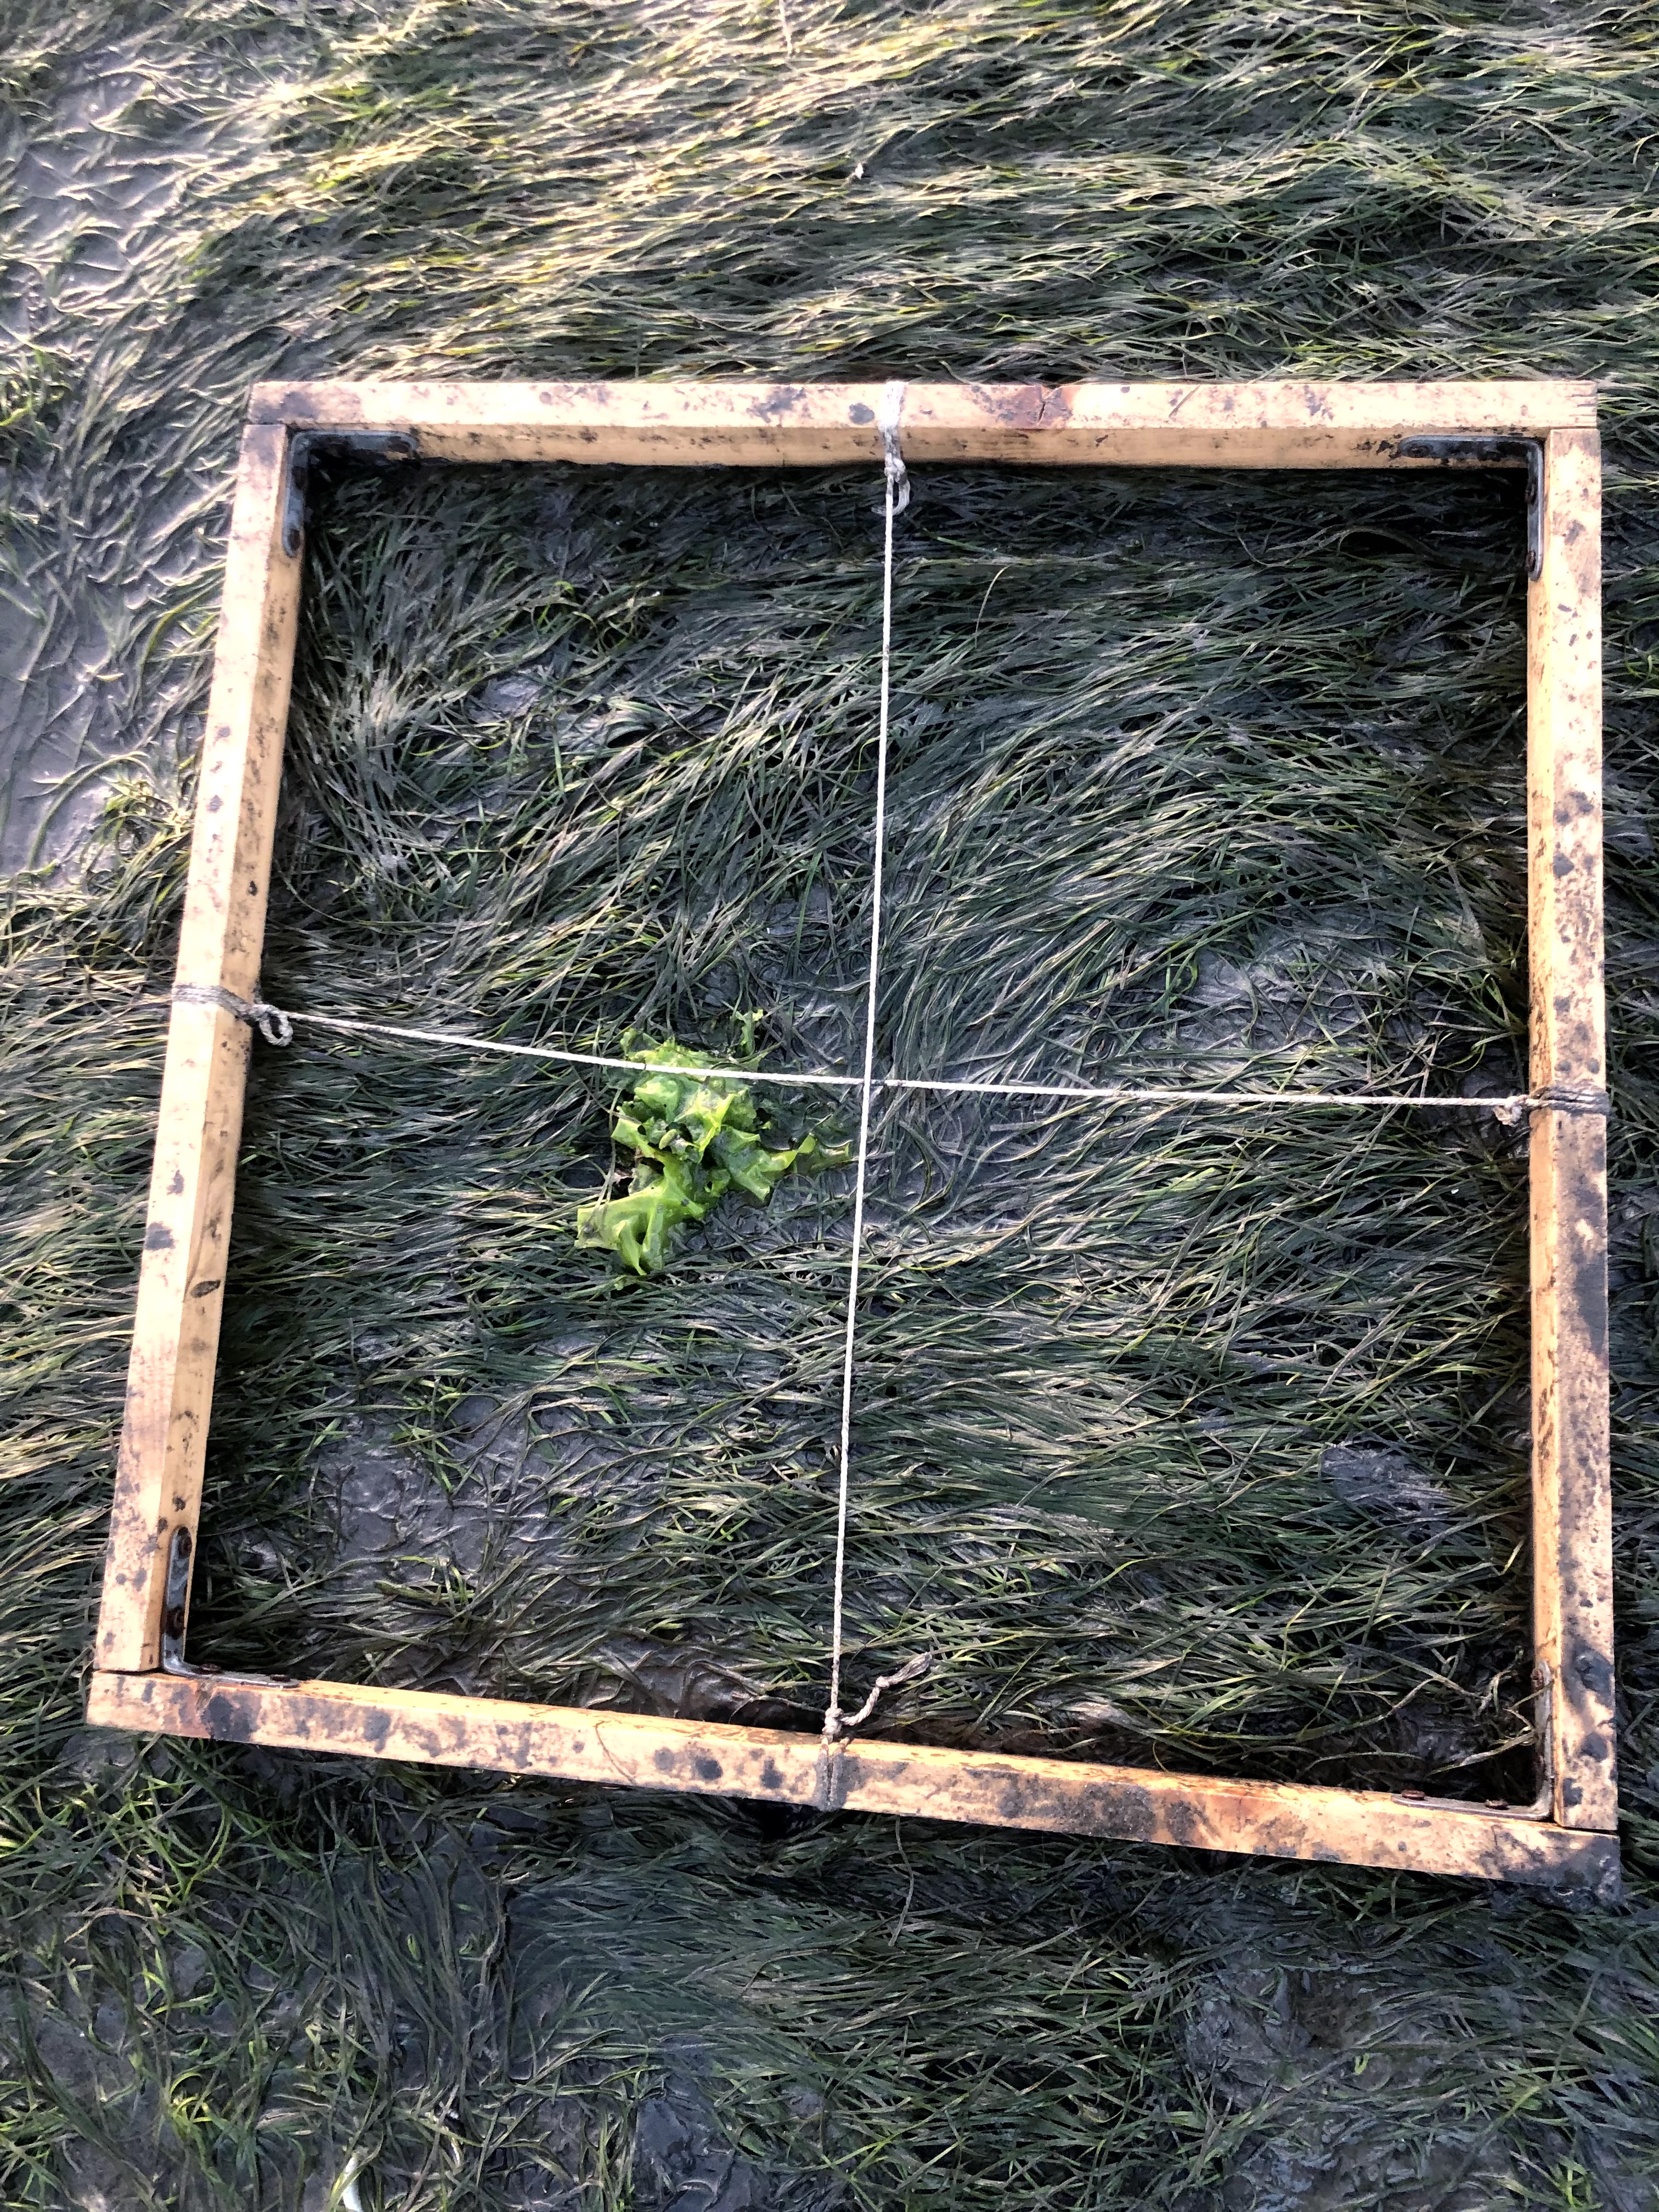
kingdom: Plantae
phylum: Tracheophyta
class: Liliopsida
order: Alismatales
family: Zosteraceae
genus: Zostera
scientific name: Zostera noltii
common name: Dwarf eelgrass
